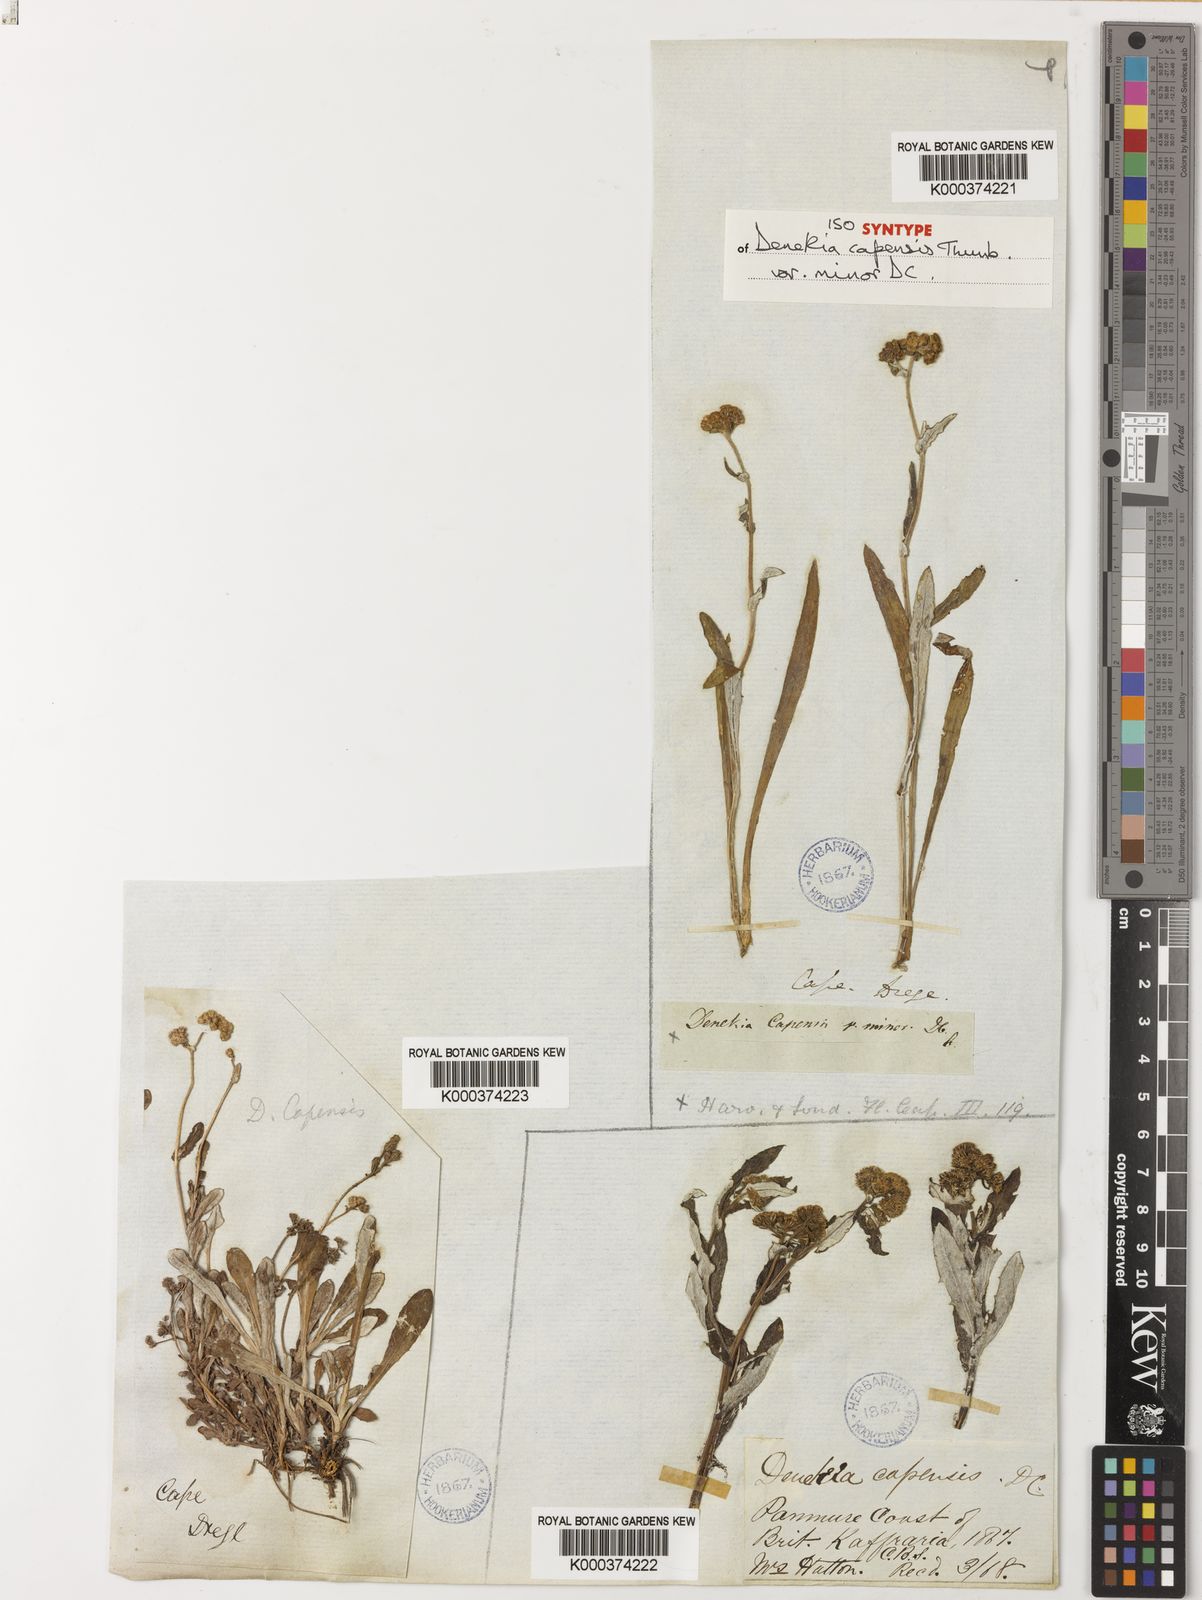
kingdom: Plantae
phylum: Tracheophyta
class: Magnoliopsida
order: Asterales
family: Asteraceae
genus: Denekia
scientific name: Denekia capensis
